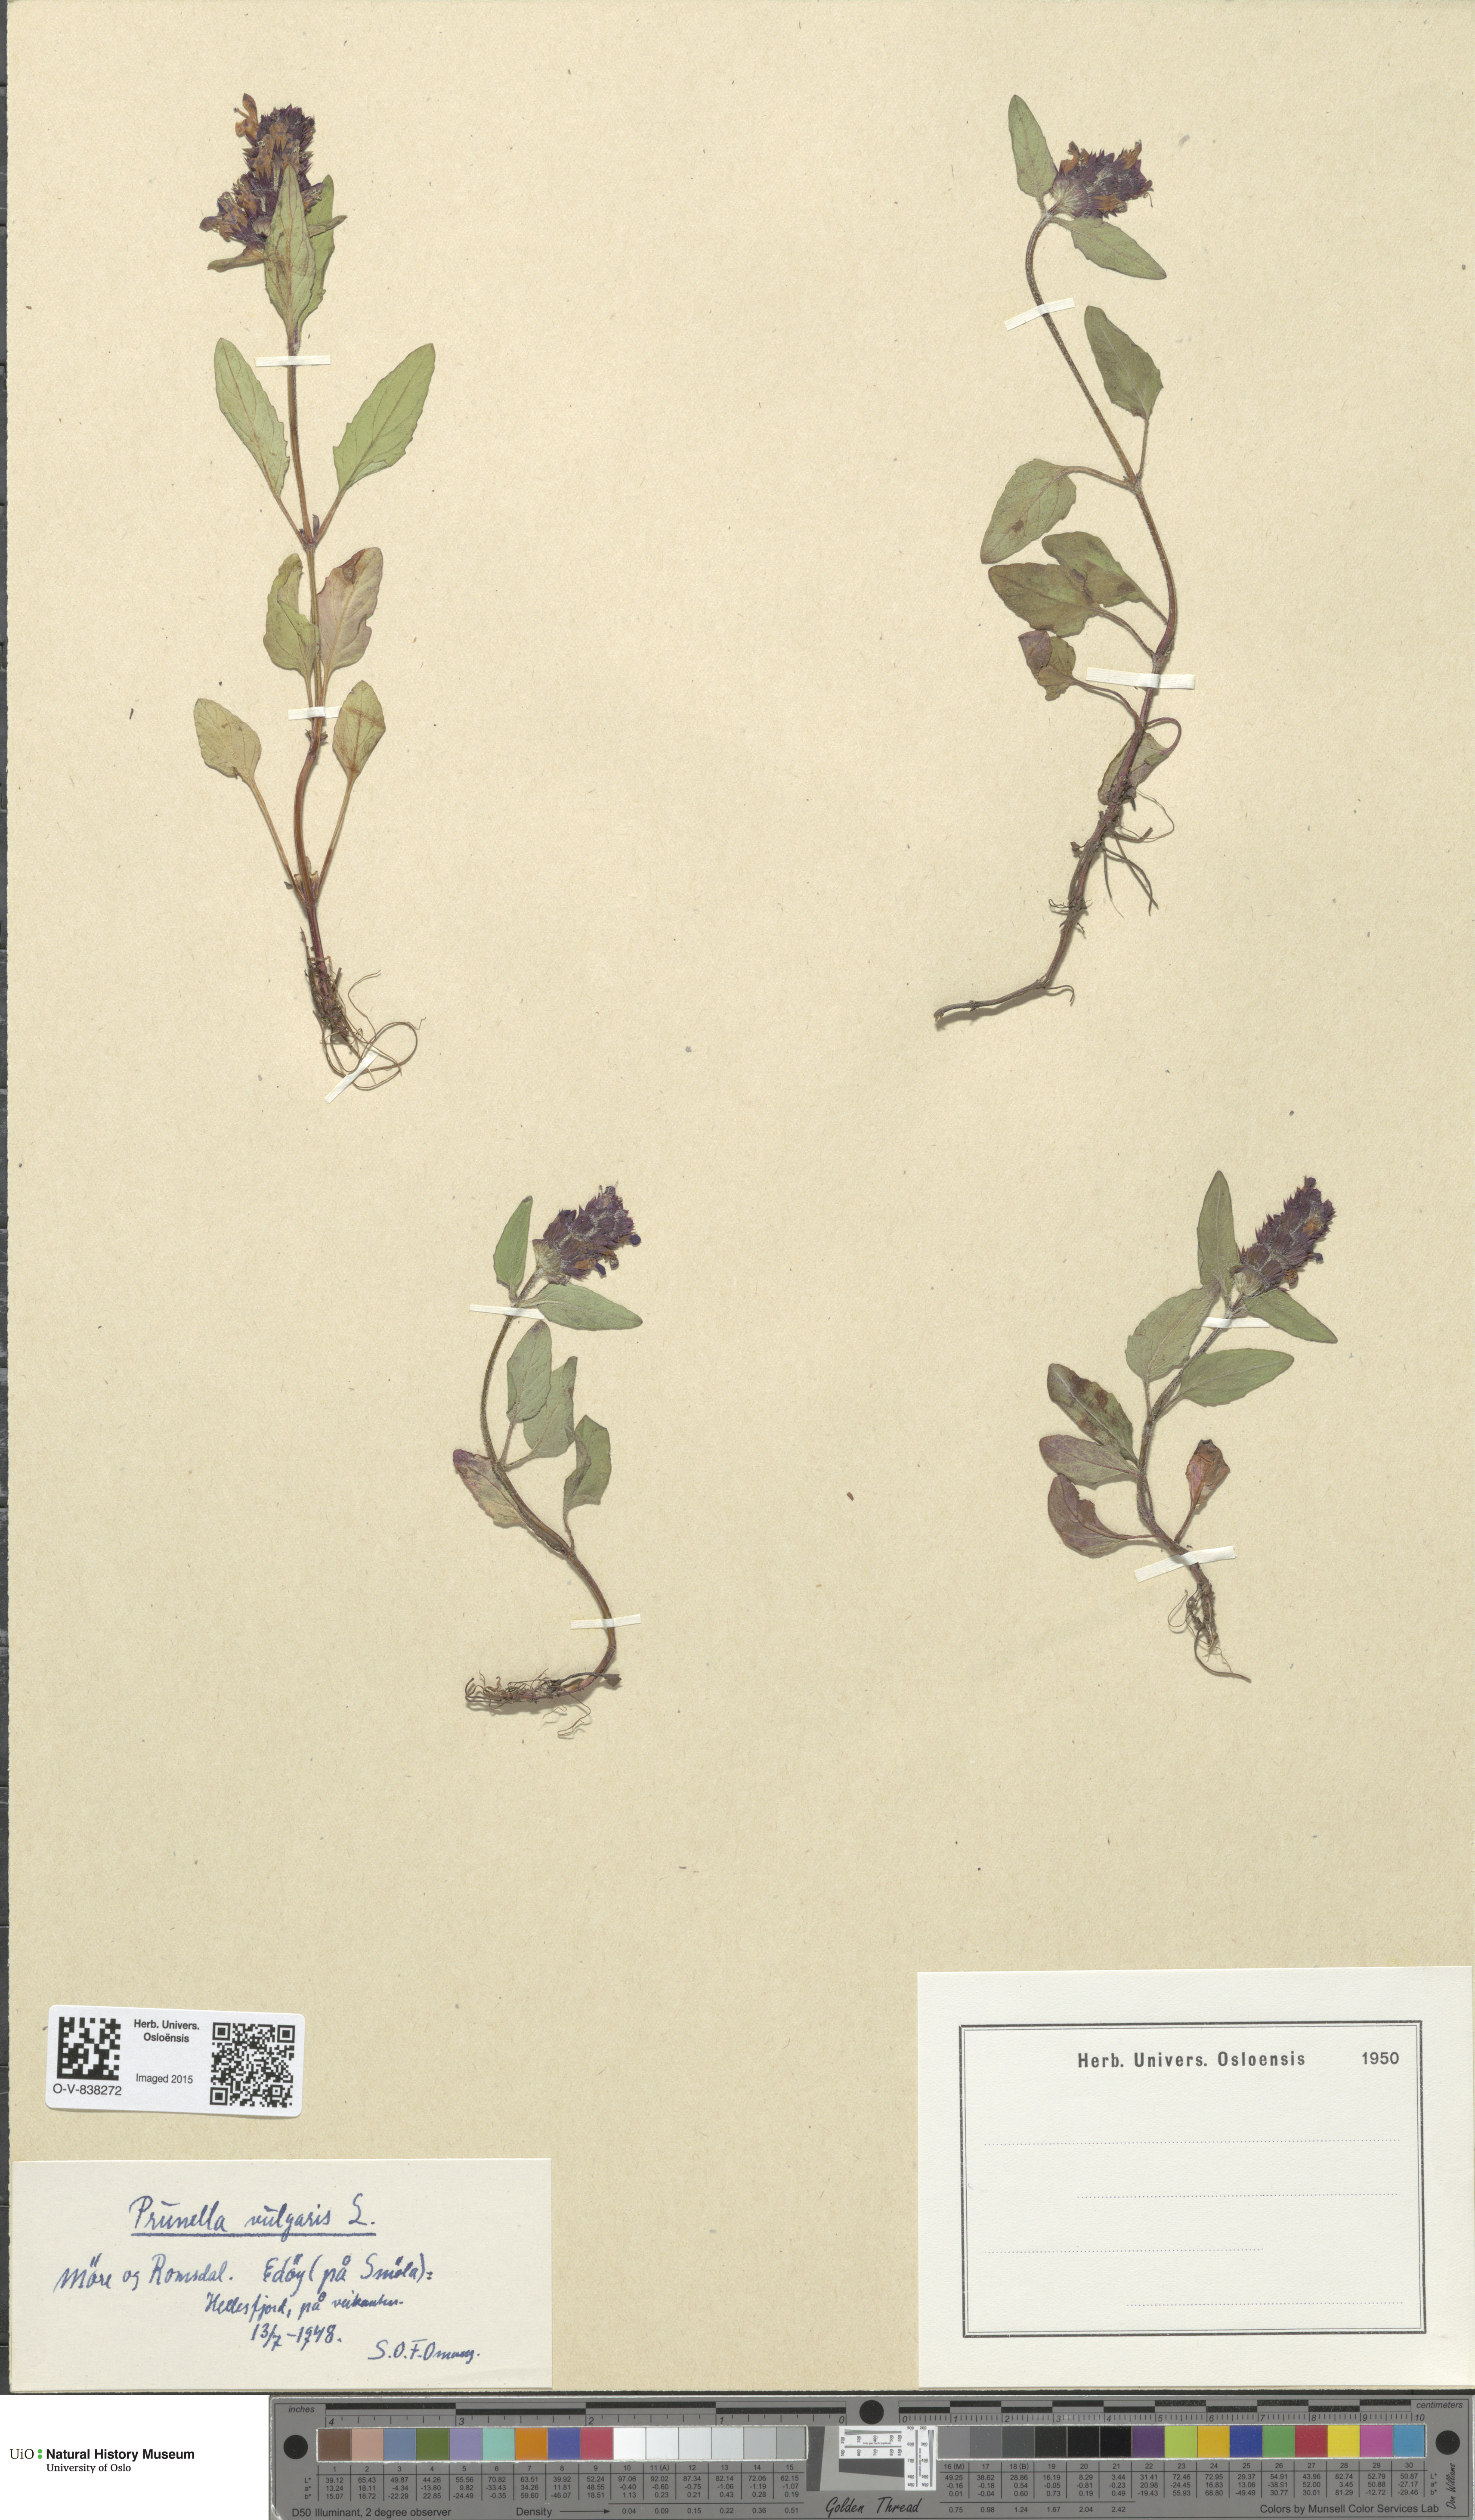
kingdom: Plantae
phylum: Tracheophyta
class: Magnoliopsida
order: Lamiales
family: Lamiaceae
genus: Prunella
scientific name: Prunella vulgaris
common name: Heal-all
